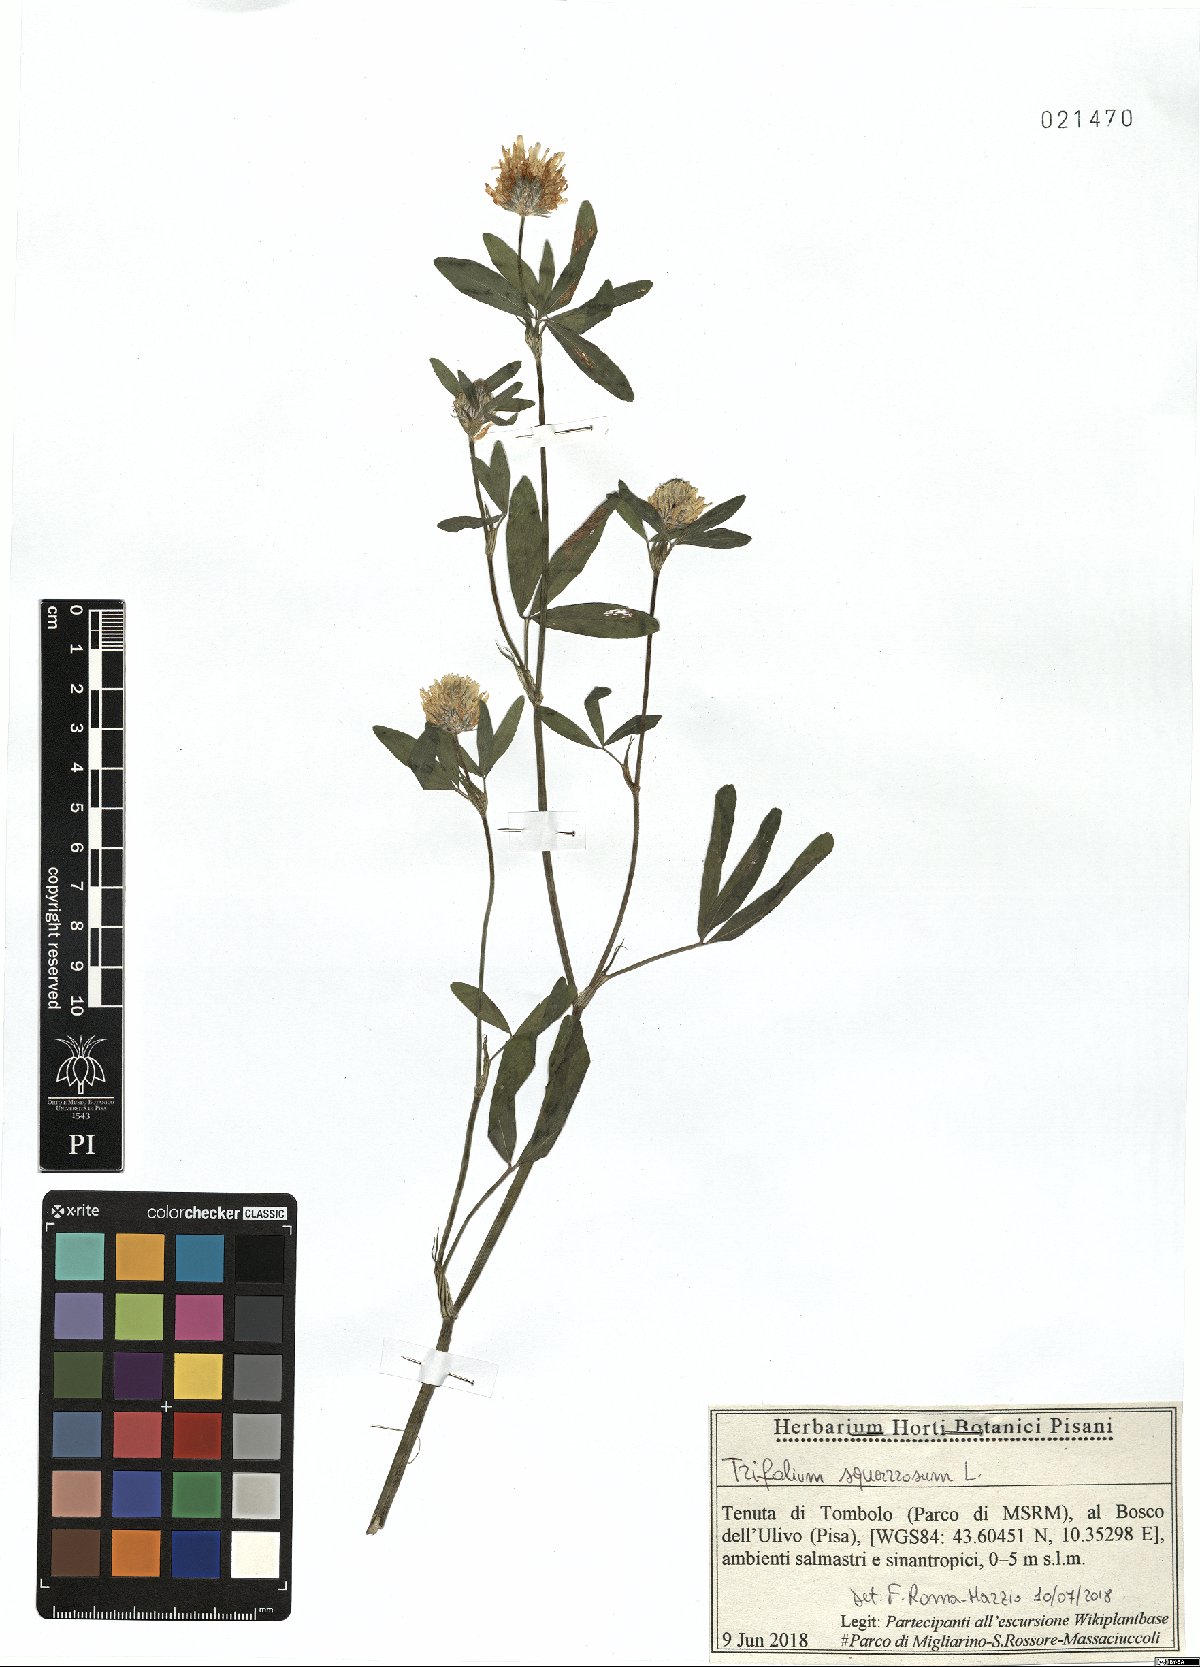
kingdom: Plantae
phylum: Tracheophyta
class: Magnoliopsida
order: Fabales
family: Fabaceae
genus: Trifolium
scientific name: Trifolium squarrosum
